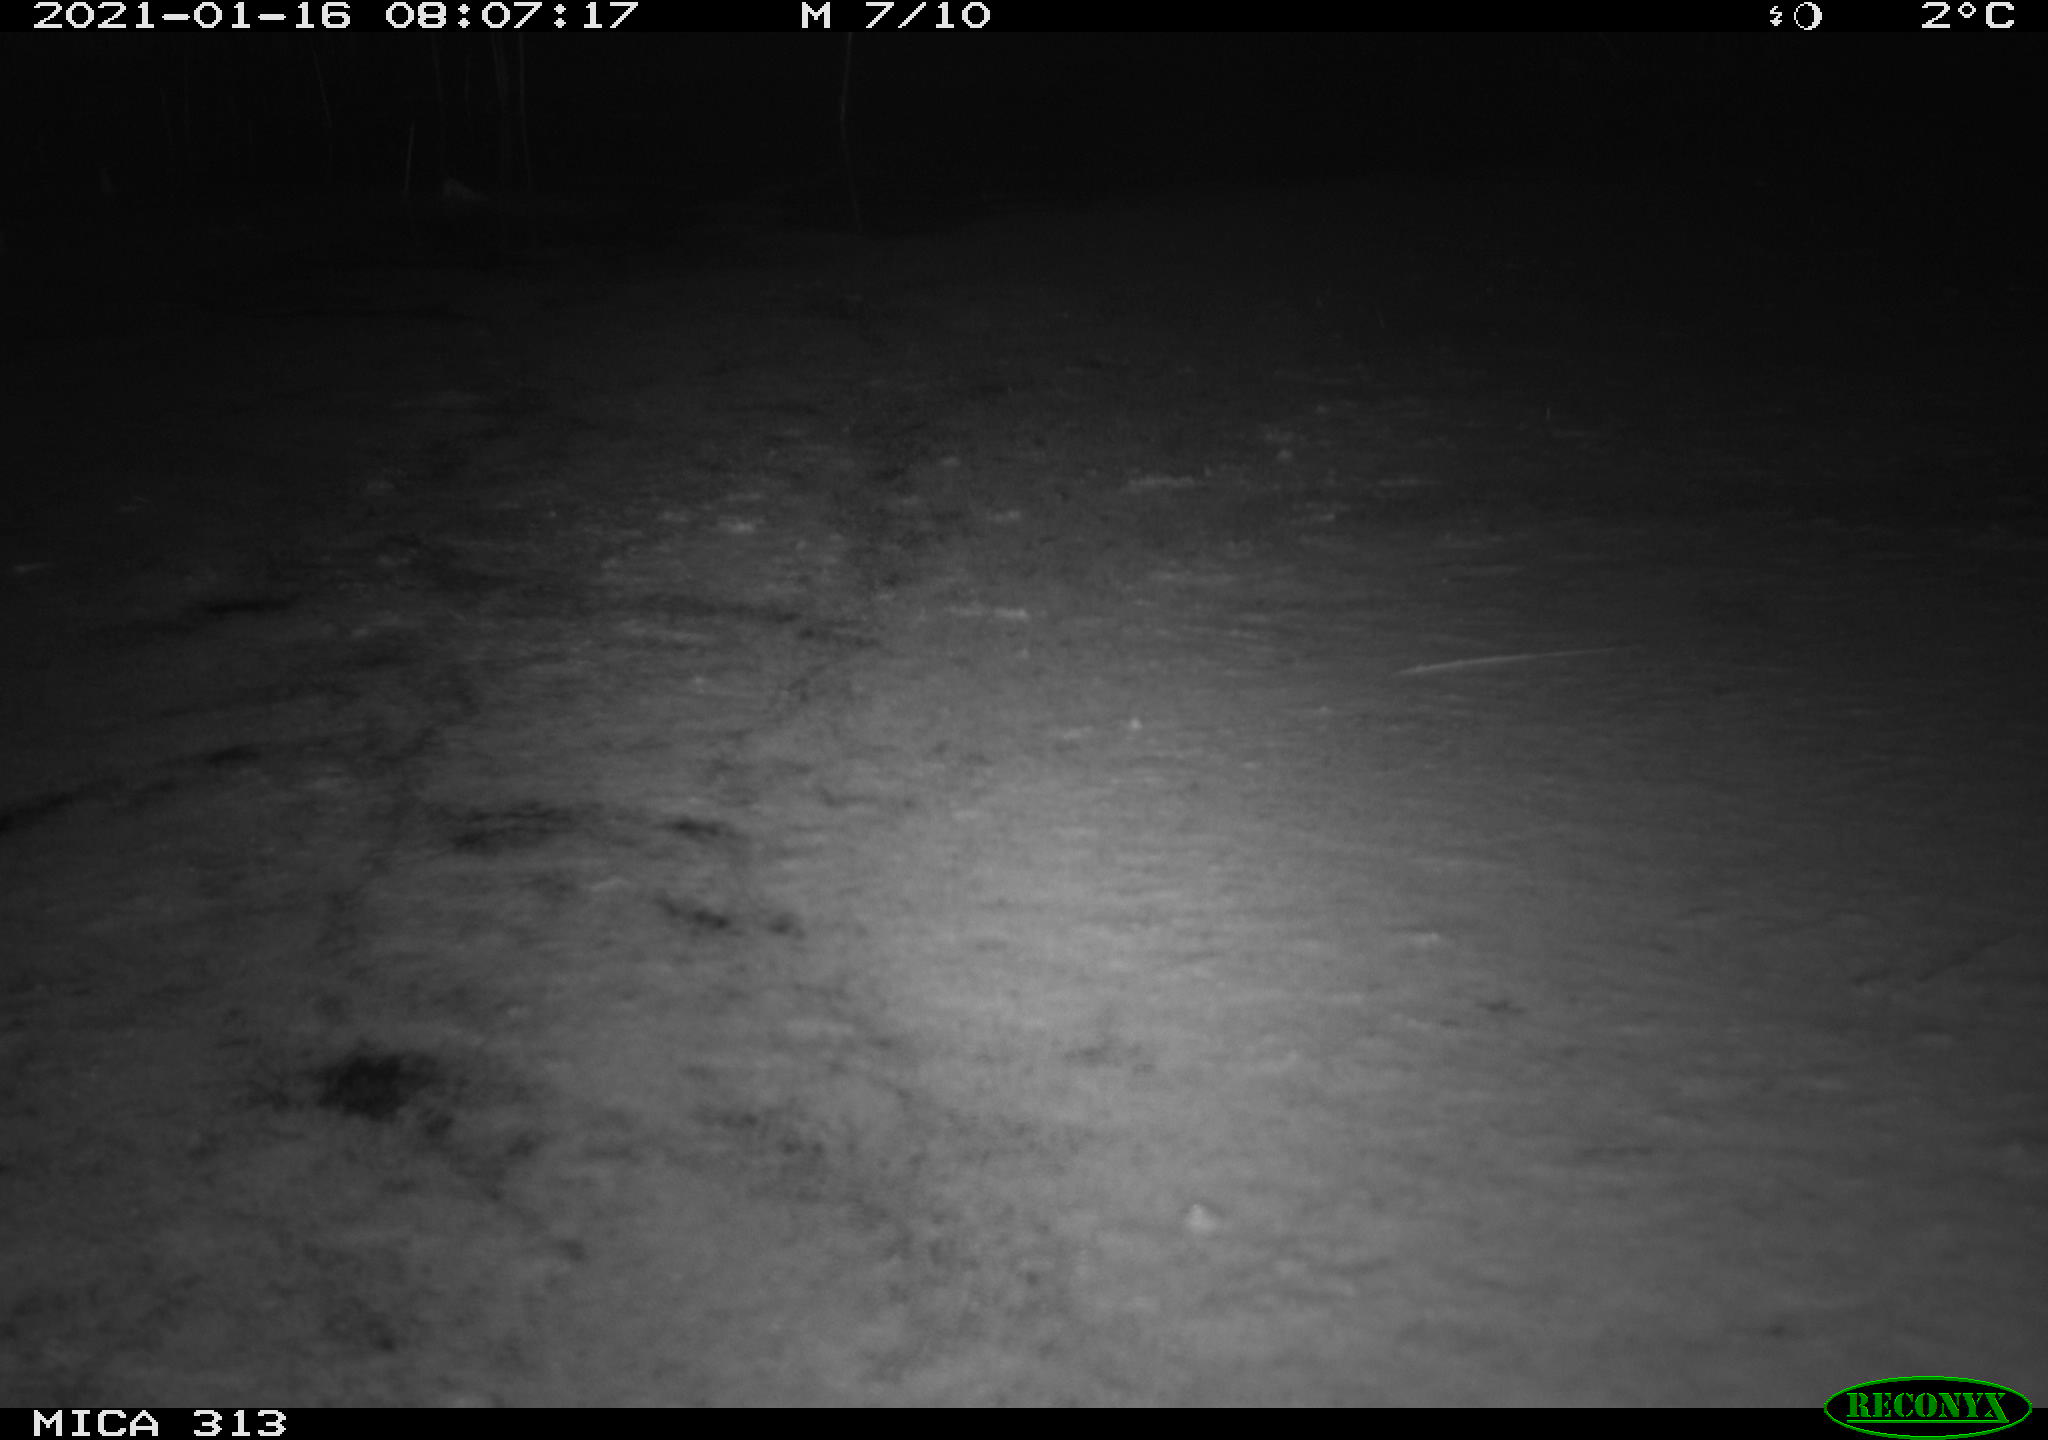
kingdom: Animalia
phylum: Chordata
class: Aves
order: Gruiformes
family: Rallidae
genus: Gallinula
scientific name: Gallinula chloropus
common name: Common moorhen
